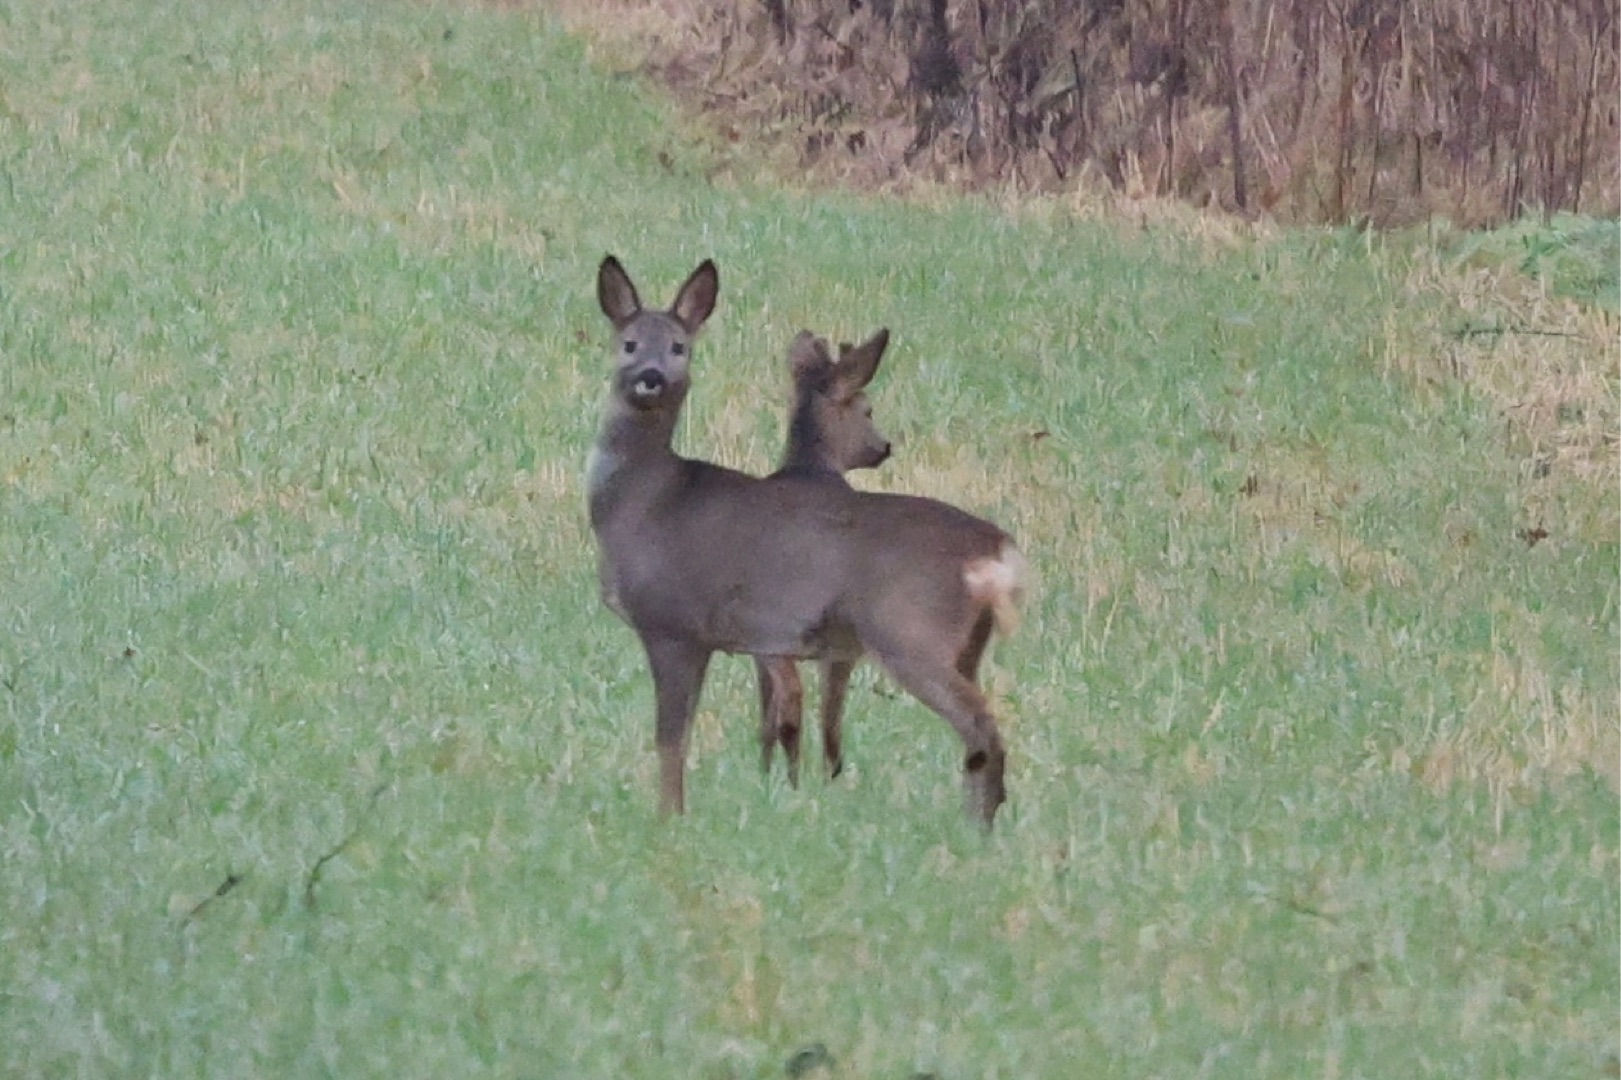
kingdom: Animalia
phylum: Chordata
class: Mammalia
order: Artiodactyla
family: Cervidae
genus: Capreolus
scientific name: Capreolus capreolus
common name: Rådyr
